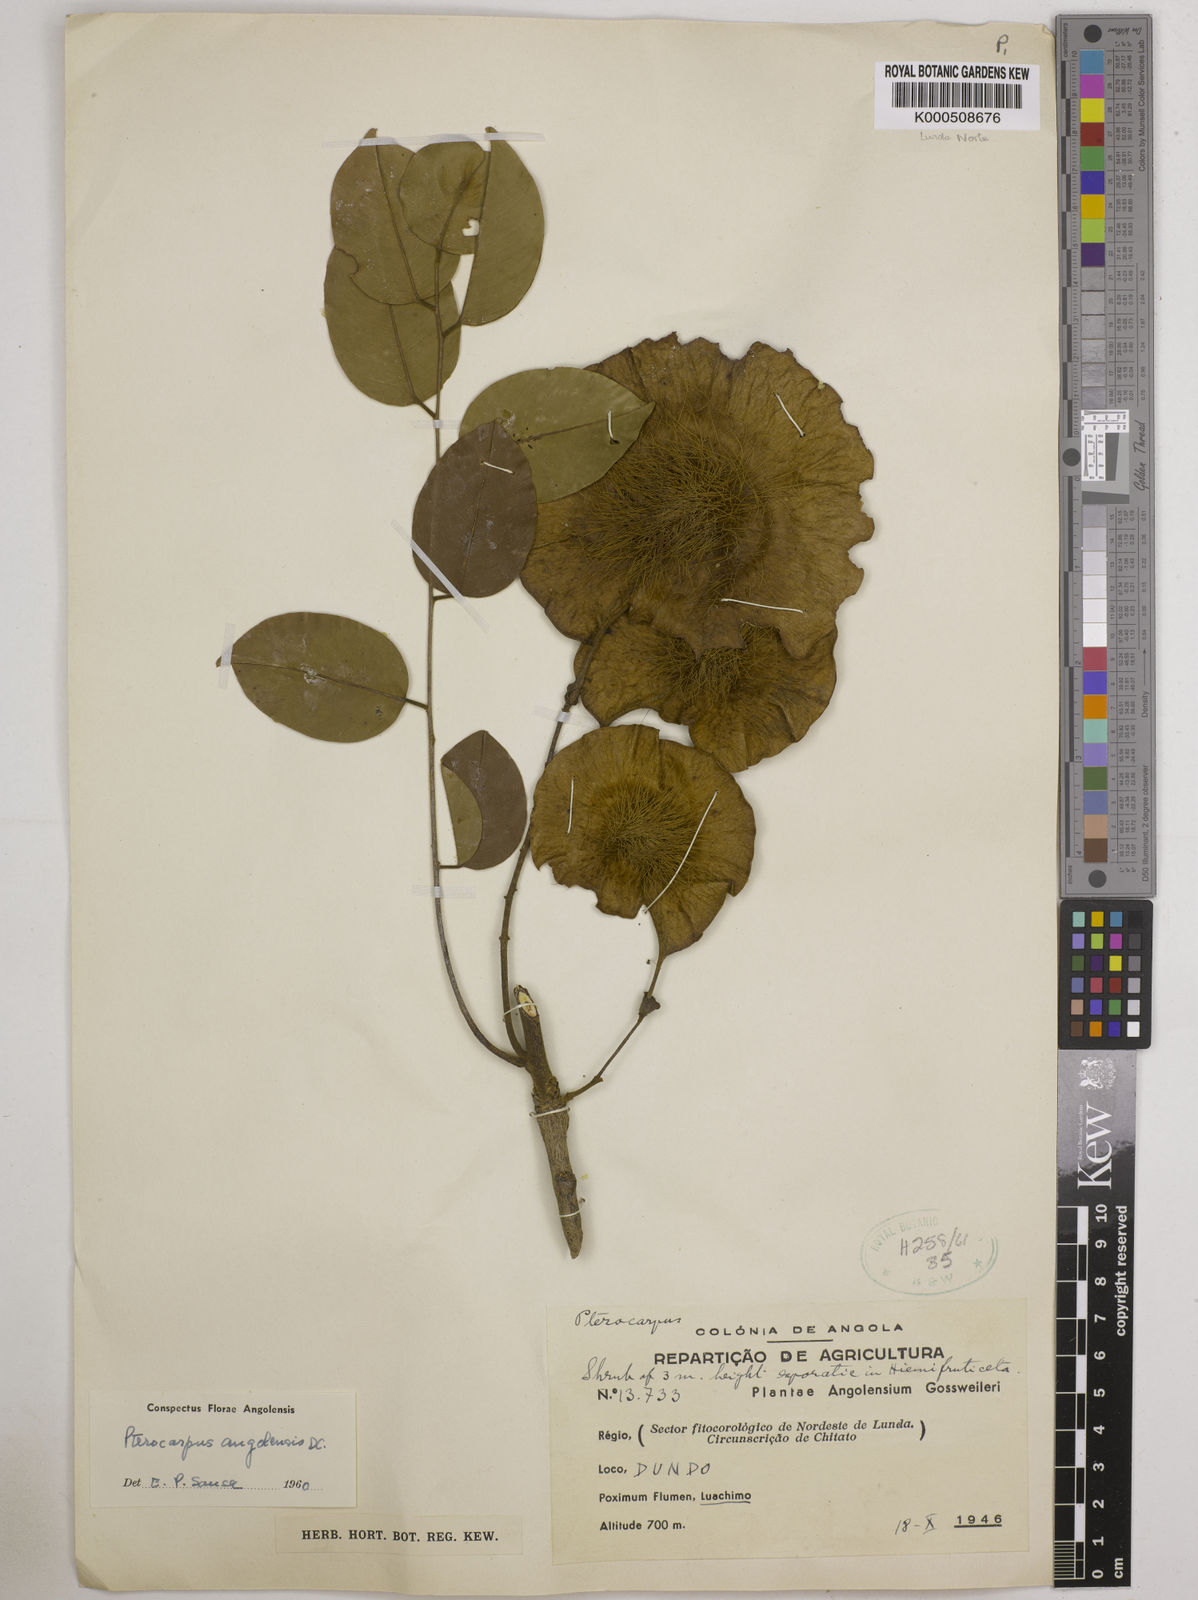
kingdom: Plantae
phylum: Tracheophyta
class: Magnoliopsida
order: Fabales
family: Fabaceae
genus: Pterocarpus
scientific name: Pterocarpus angolensis
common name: Bloodwood tree
